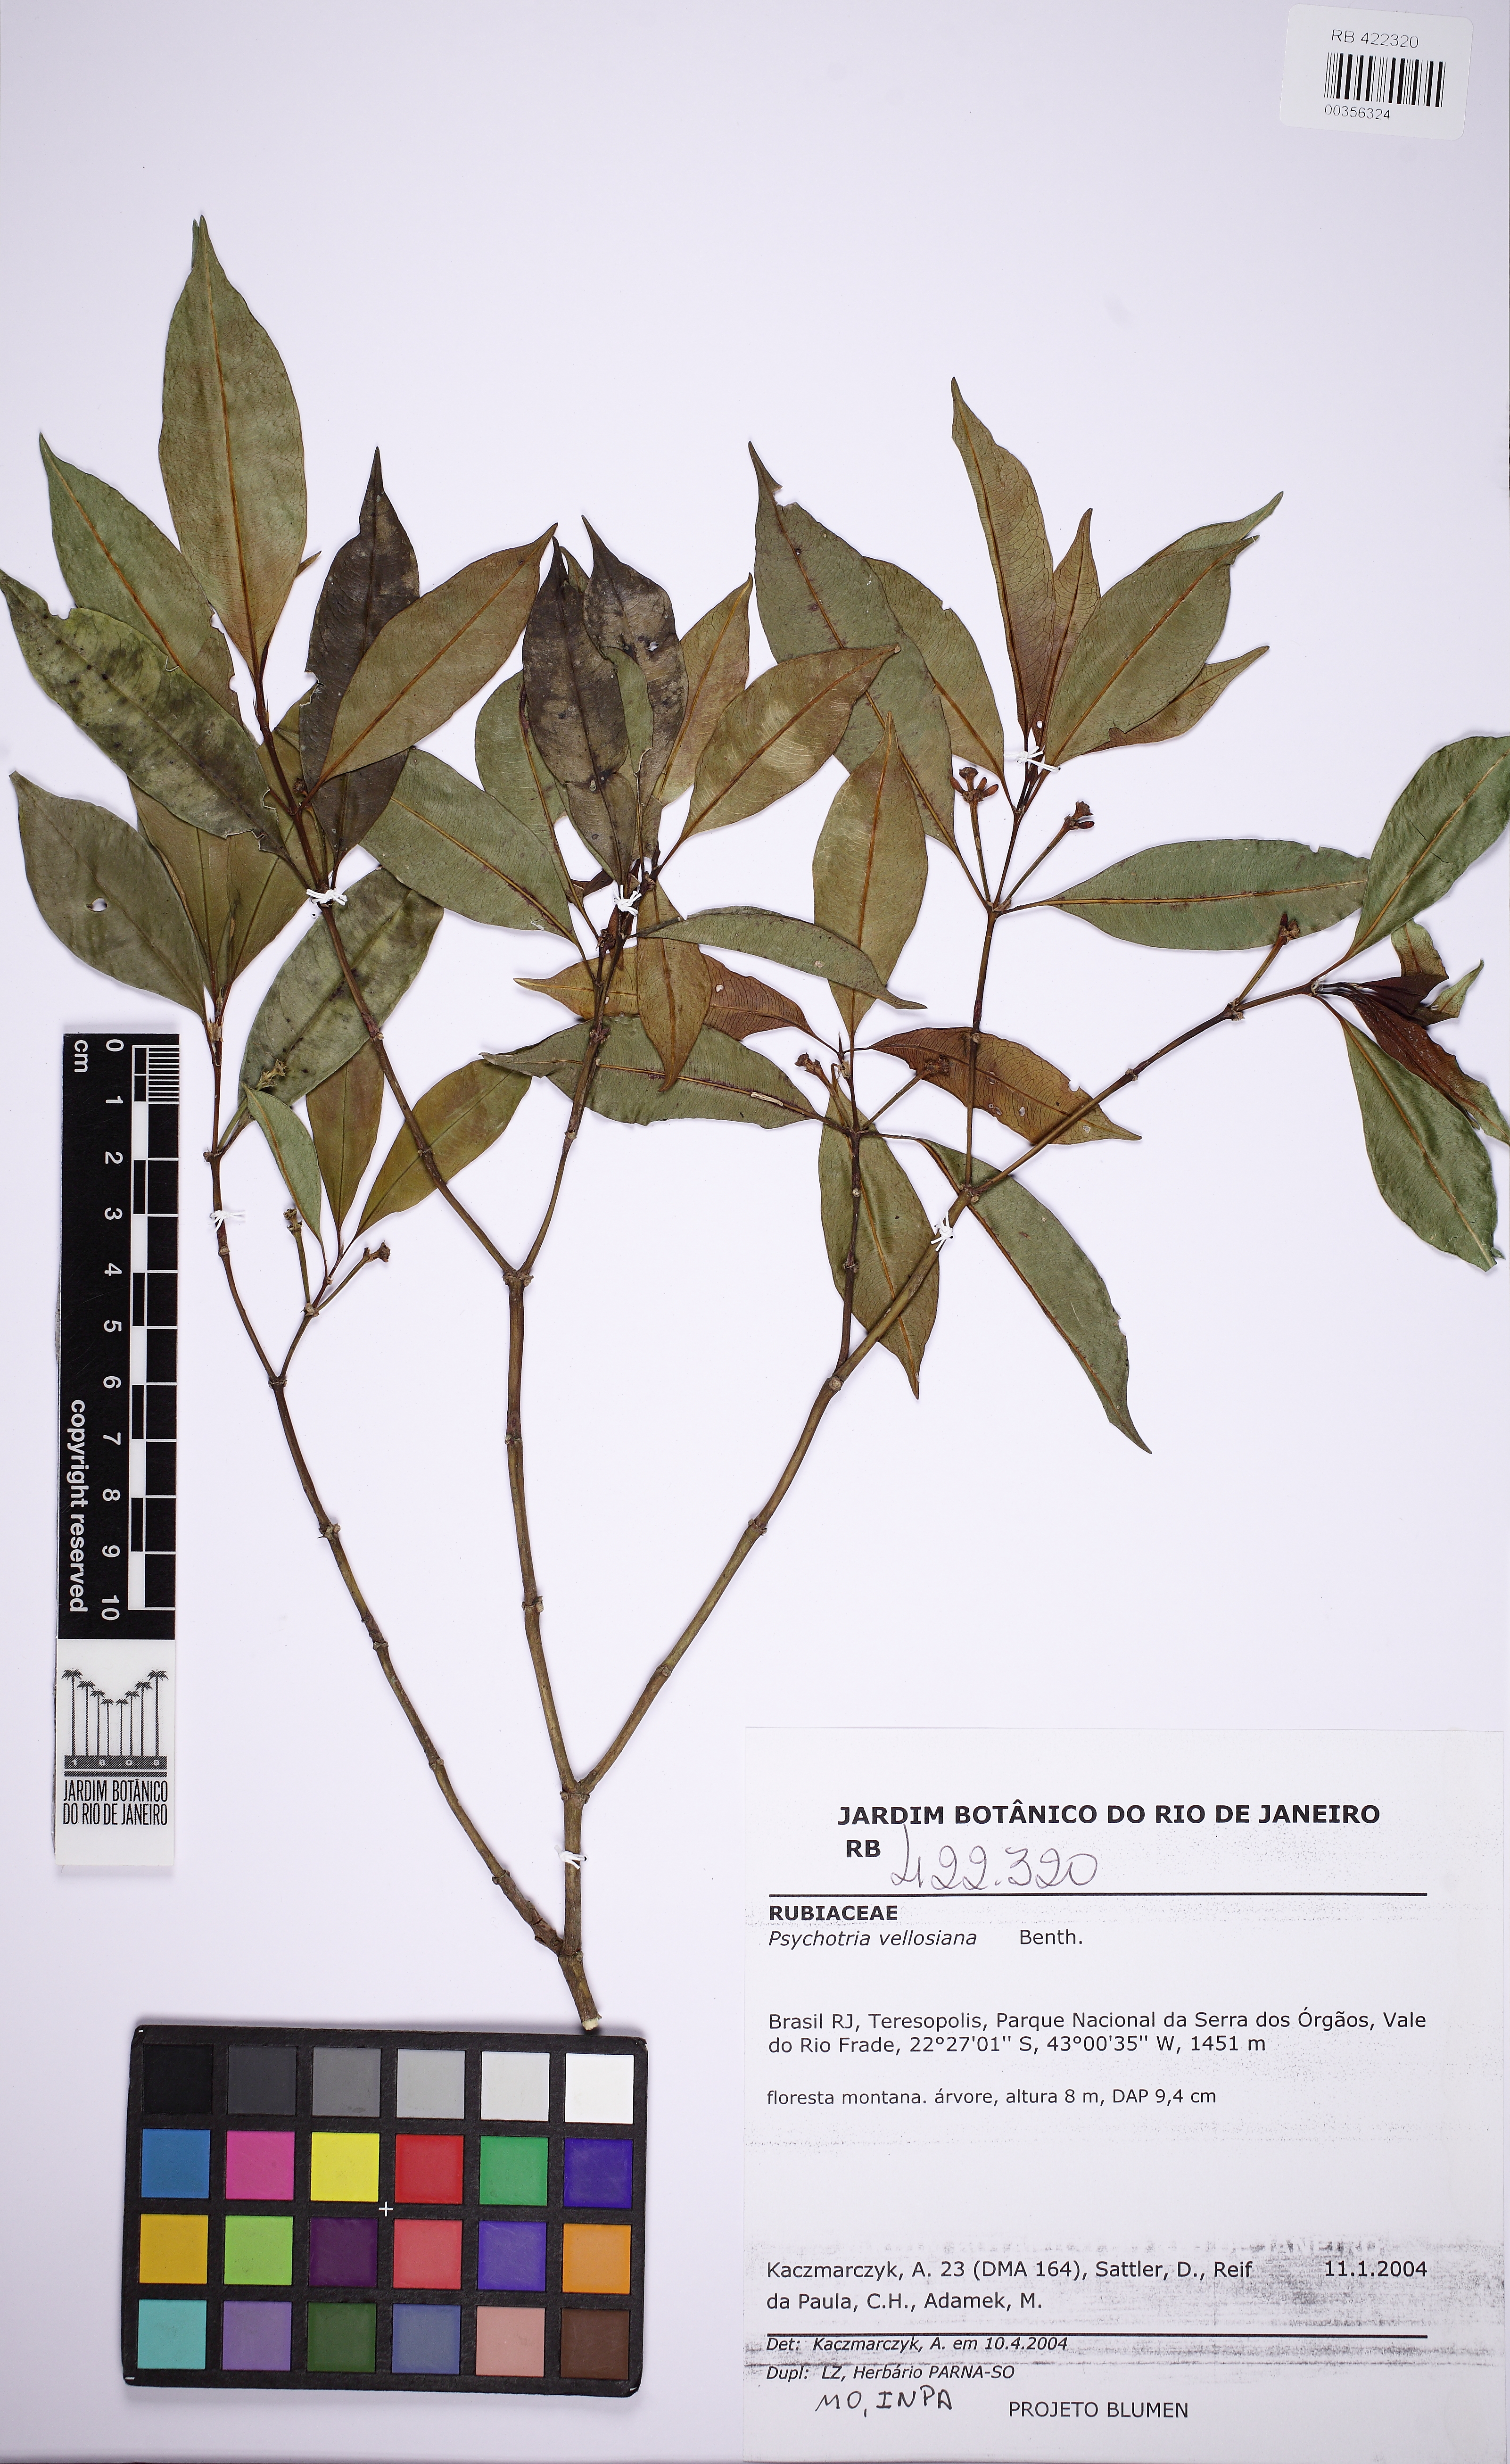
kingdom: Plantae
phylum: Tracheophyta
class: Magnoliopsida
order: Gentianales
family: Rubiaceae
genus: Palicourea
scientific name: Palicourea sessilis
